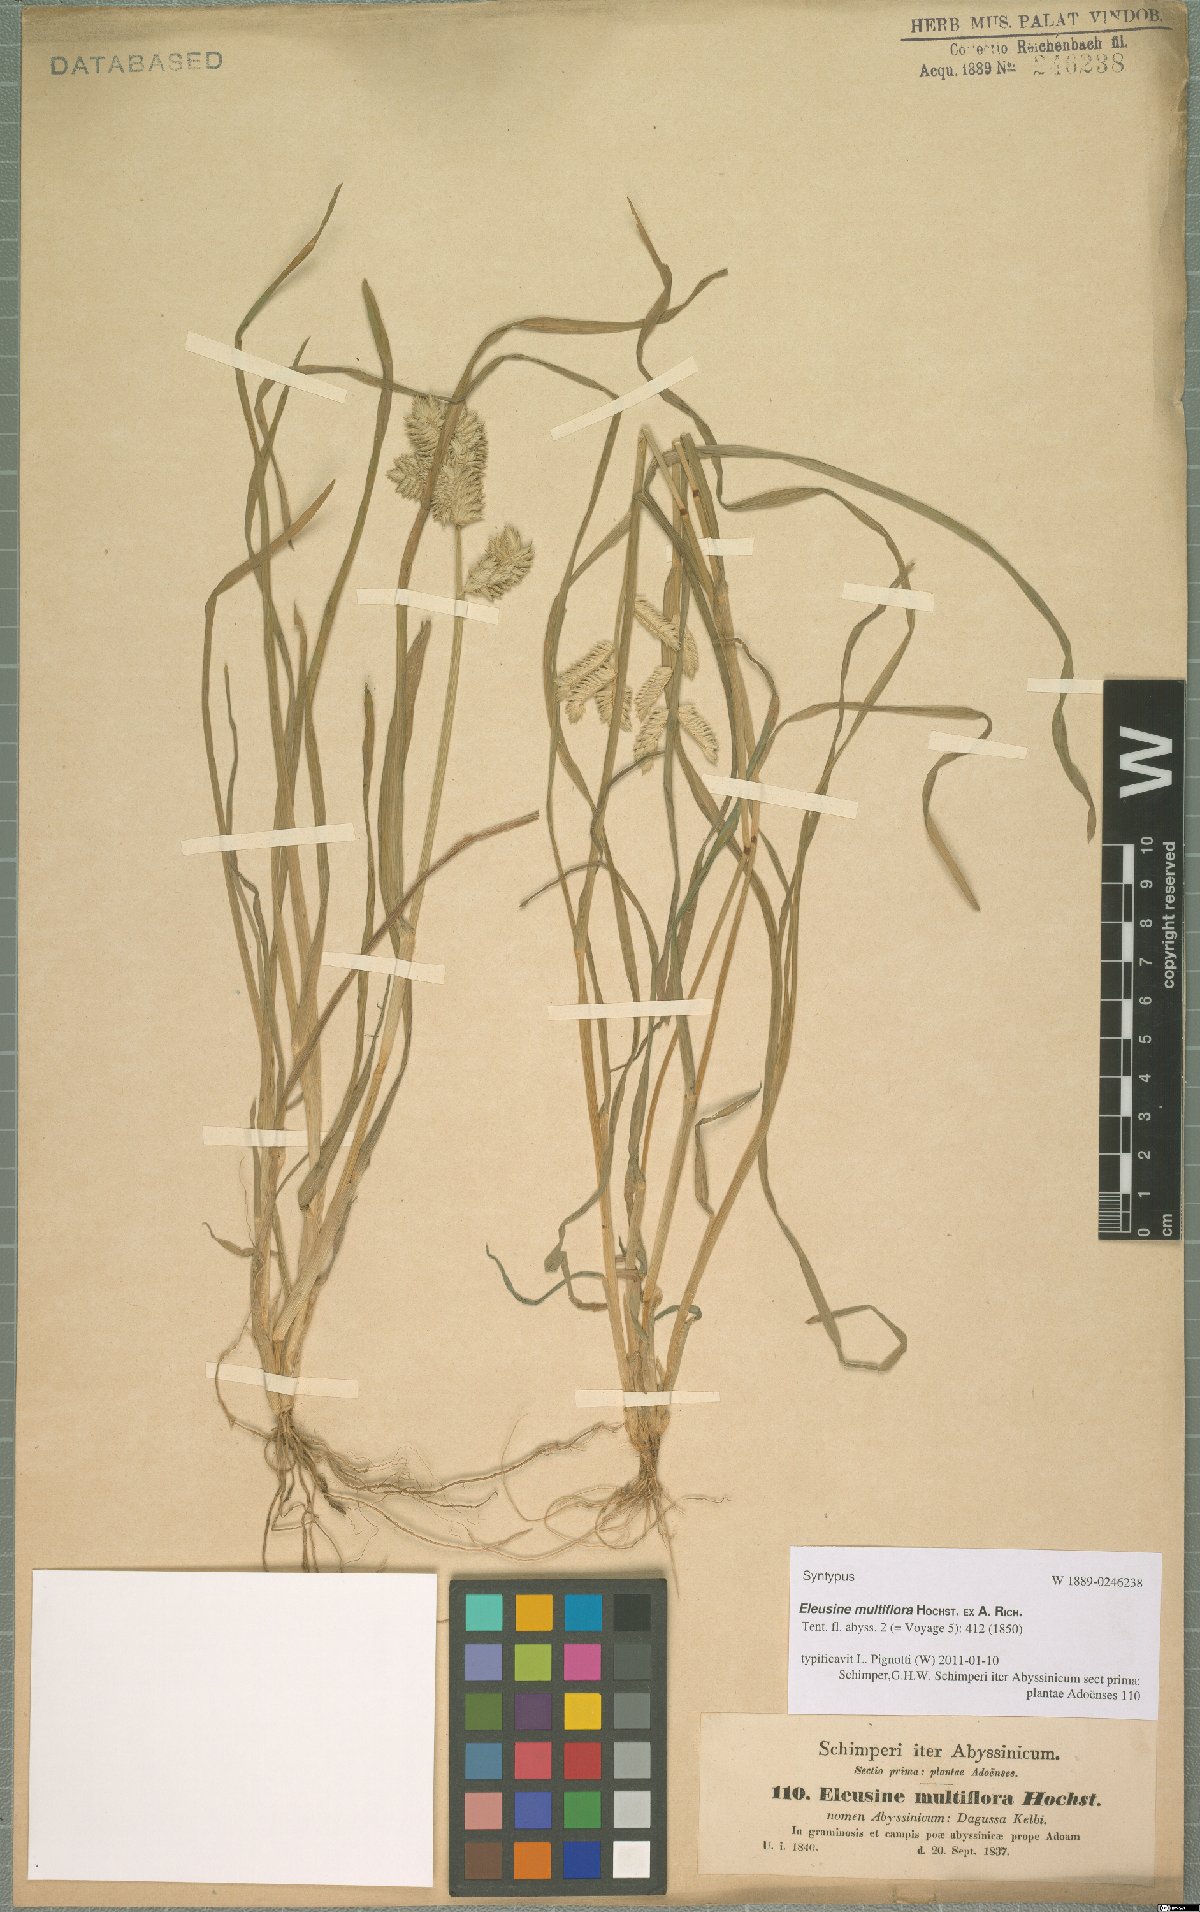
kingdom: Plantae
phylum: Tracheophyta
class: Liliopsida
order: Poales
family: Poaceae
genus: Eleusine
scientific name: Eleusine multiflora
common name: Fat-spiked yard-grass
